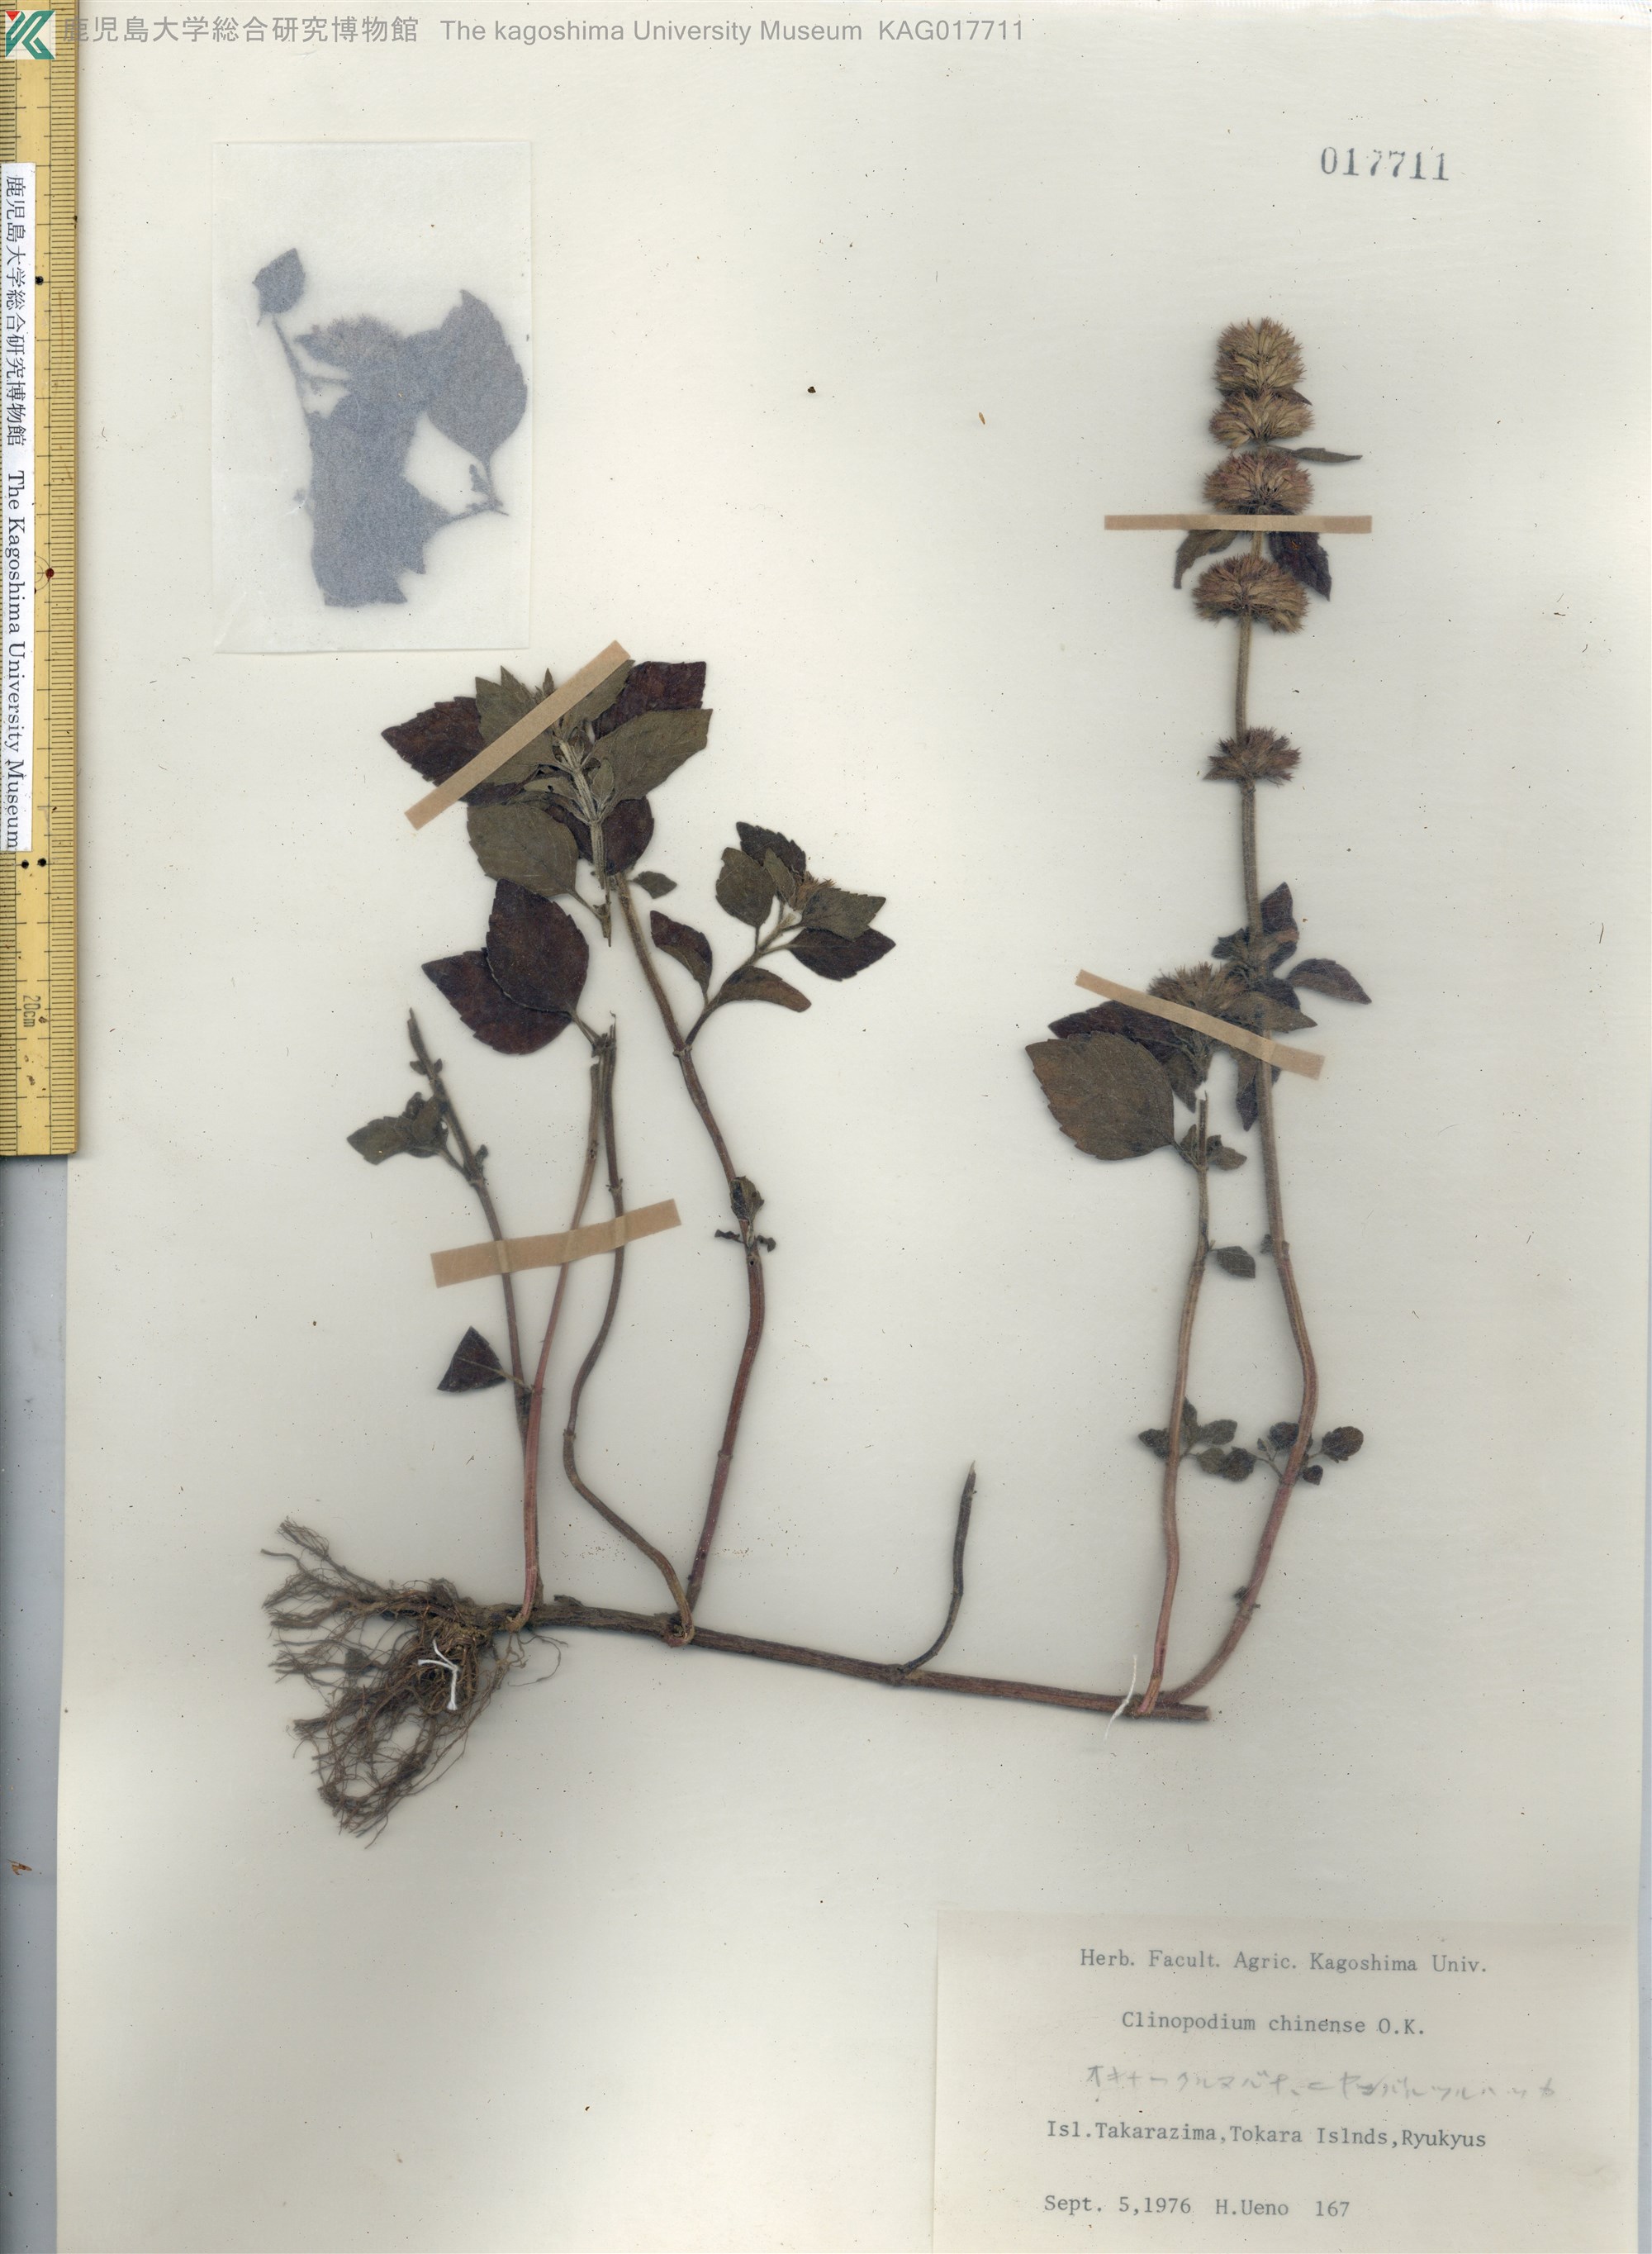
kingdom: Plantae
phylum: Tracheophyta
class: Magnoliopsida
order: Lamiales
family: Lamiaceae
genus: Clinopodium
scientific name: Clinopodium chinense
